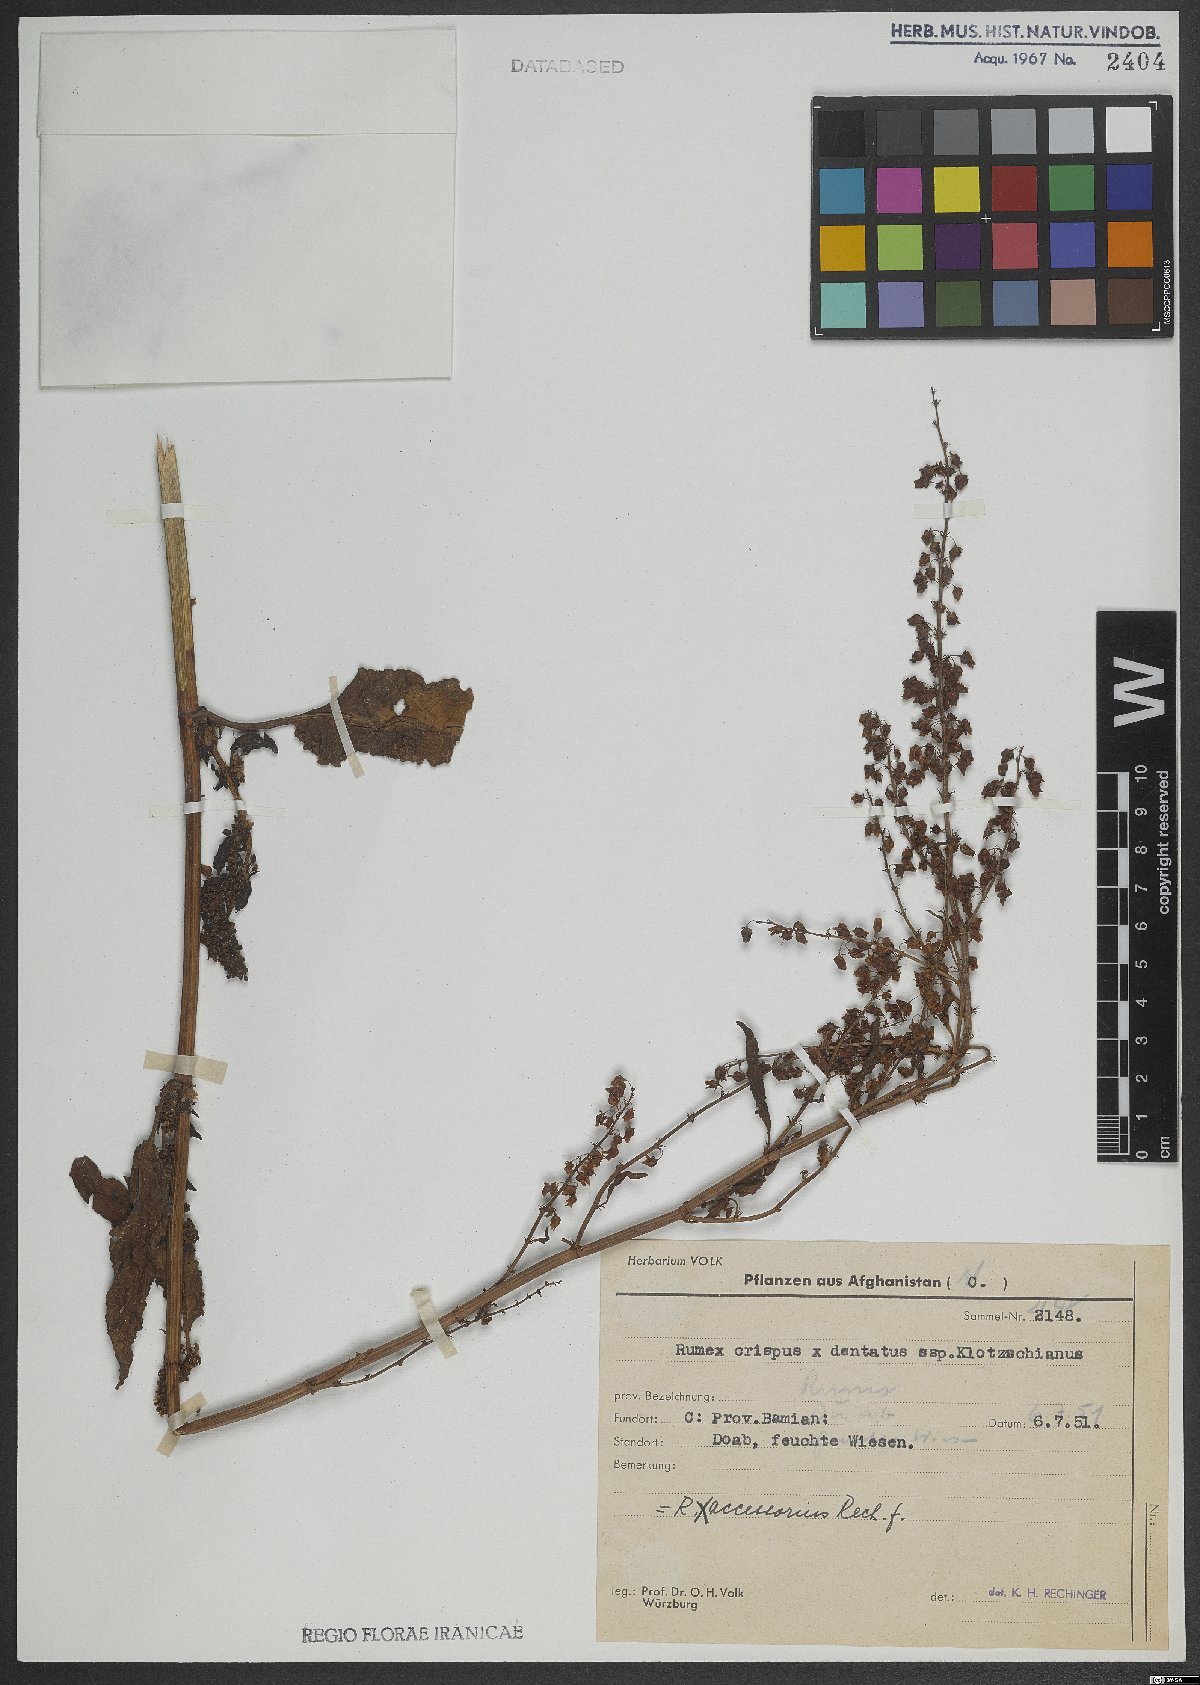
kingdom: Plantae
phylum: Tracheophyta
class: Magnoliopsida
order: Caryophyllales
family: Polygonaceae
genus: Rumex
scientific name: Rumex accessorius
